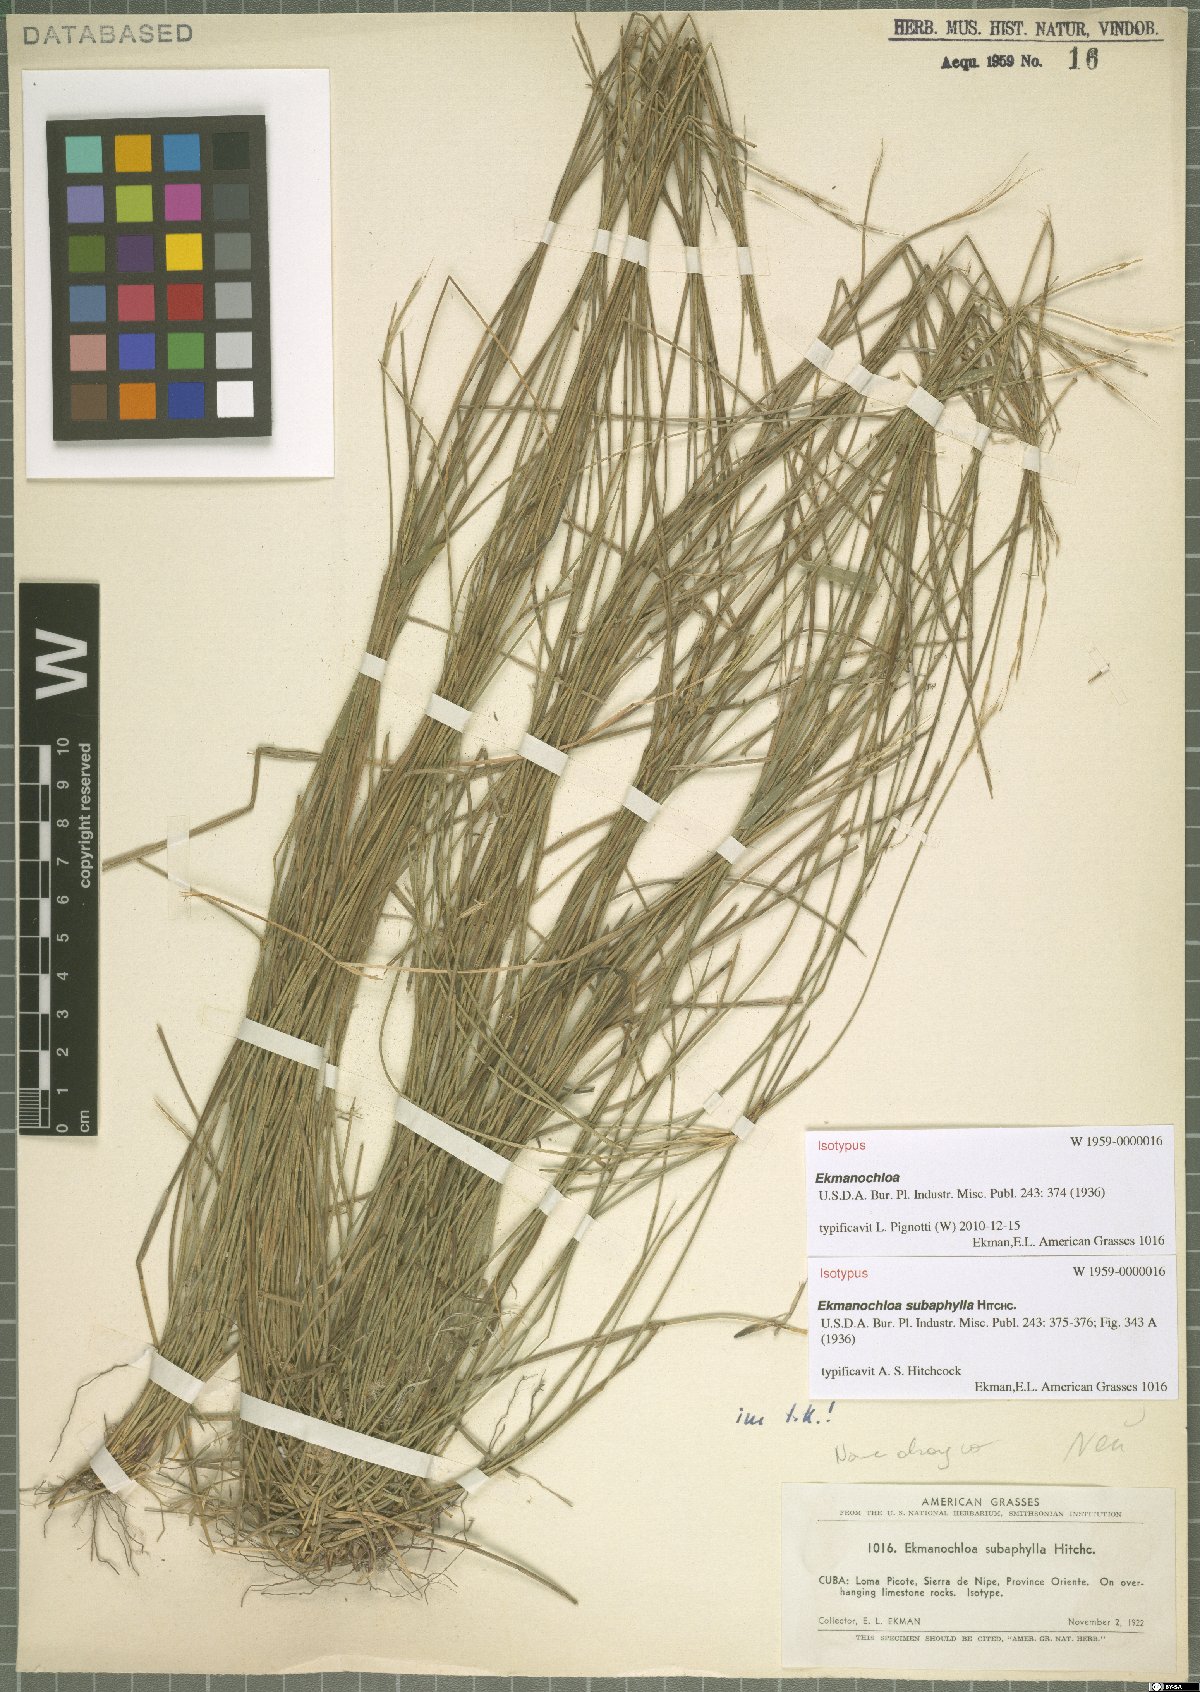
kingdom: Plantae
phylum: Tracheophyta
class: Liliopsida
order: Poales
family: Poaceae
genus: Ekmanochloa
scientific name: Ekmanochloa subaphylla
